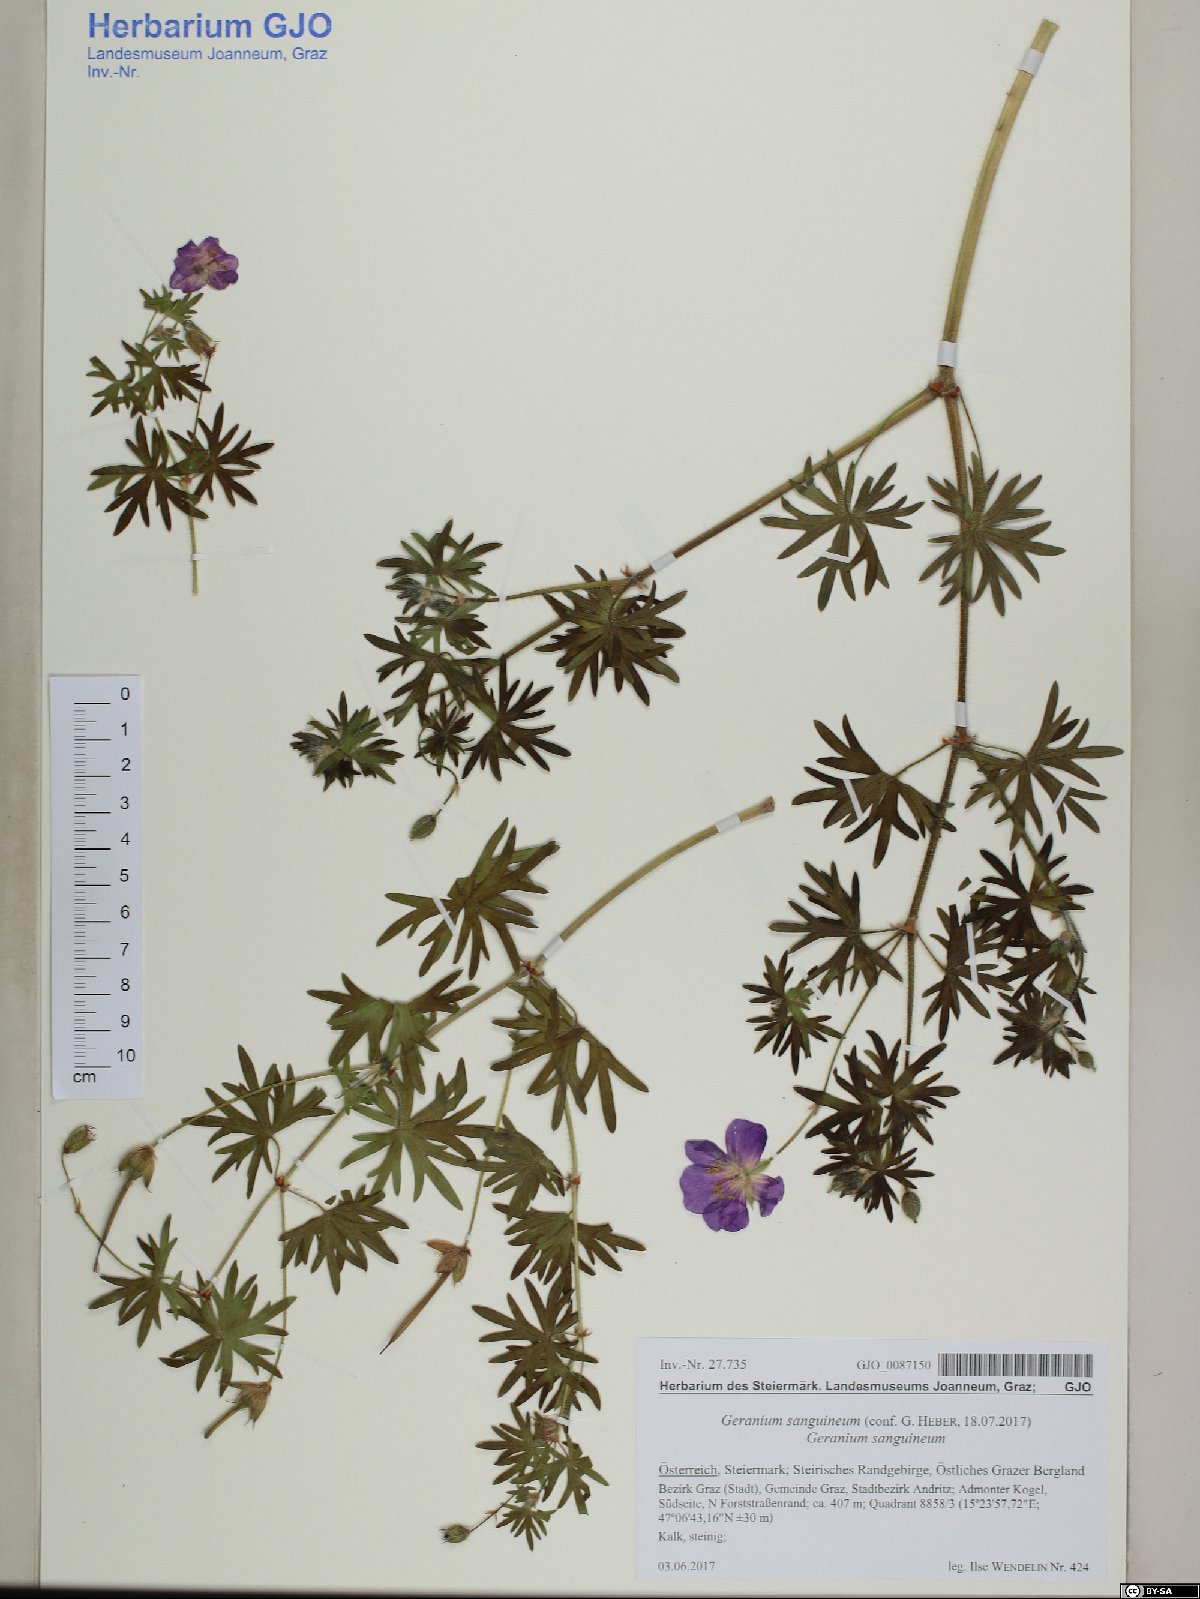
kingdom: Plantae
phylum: Tracheophyta
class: Magnoliopsida
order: Geraniales
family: Geraniaceae
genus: Geranium
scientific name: Geranium sanguineum
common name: Bloody crane's-bill
